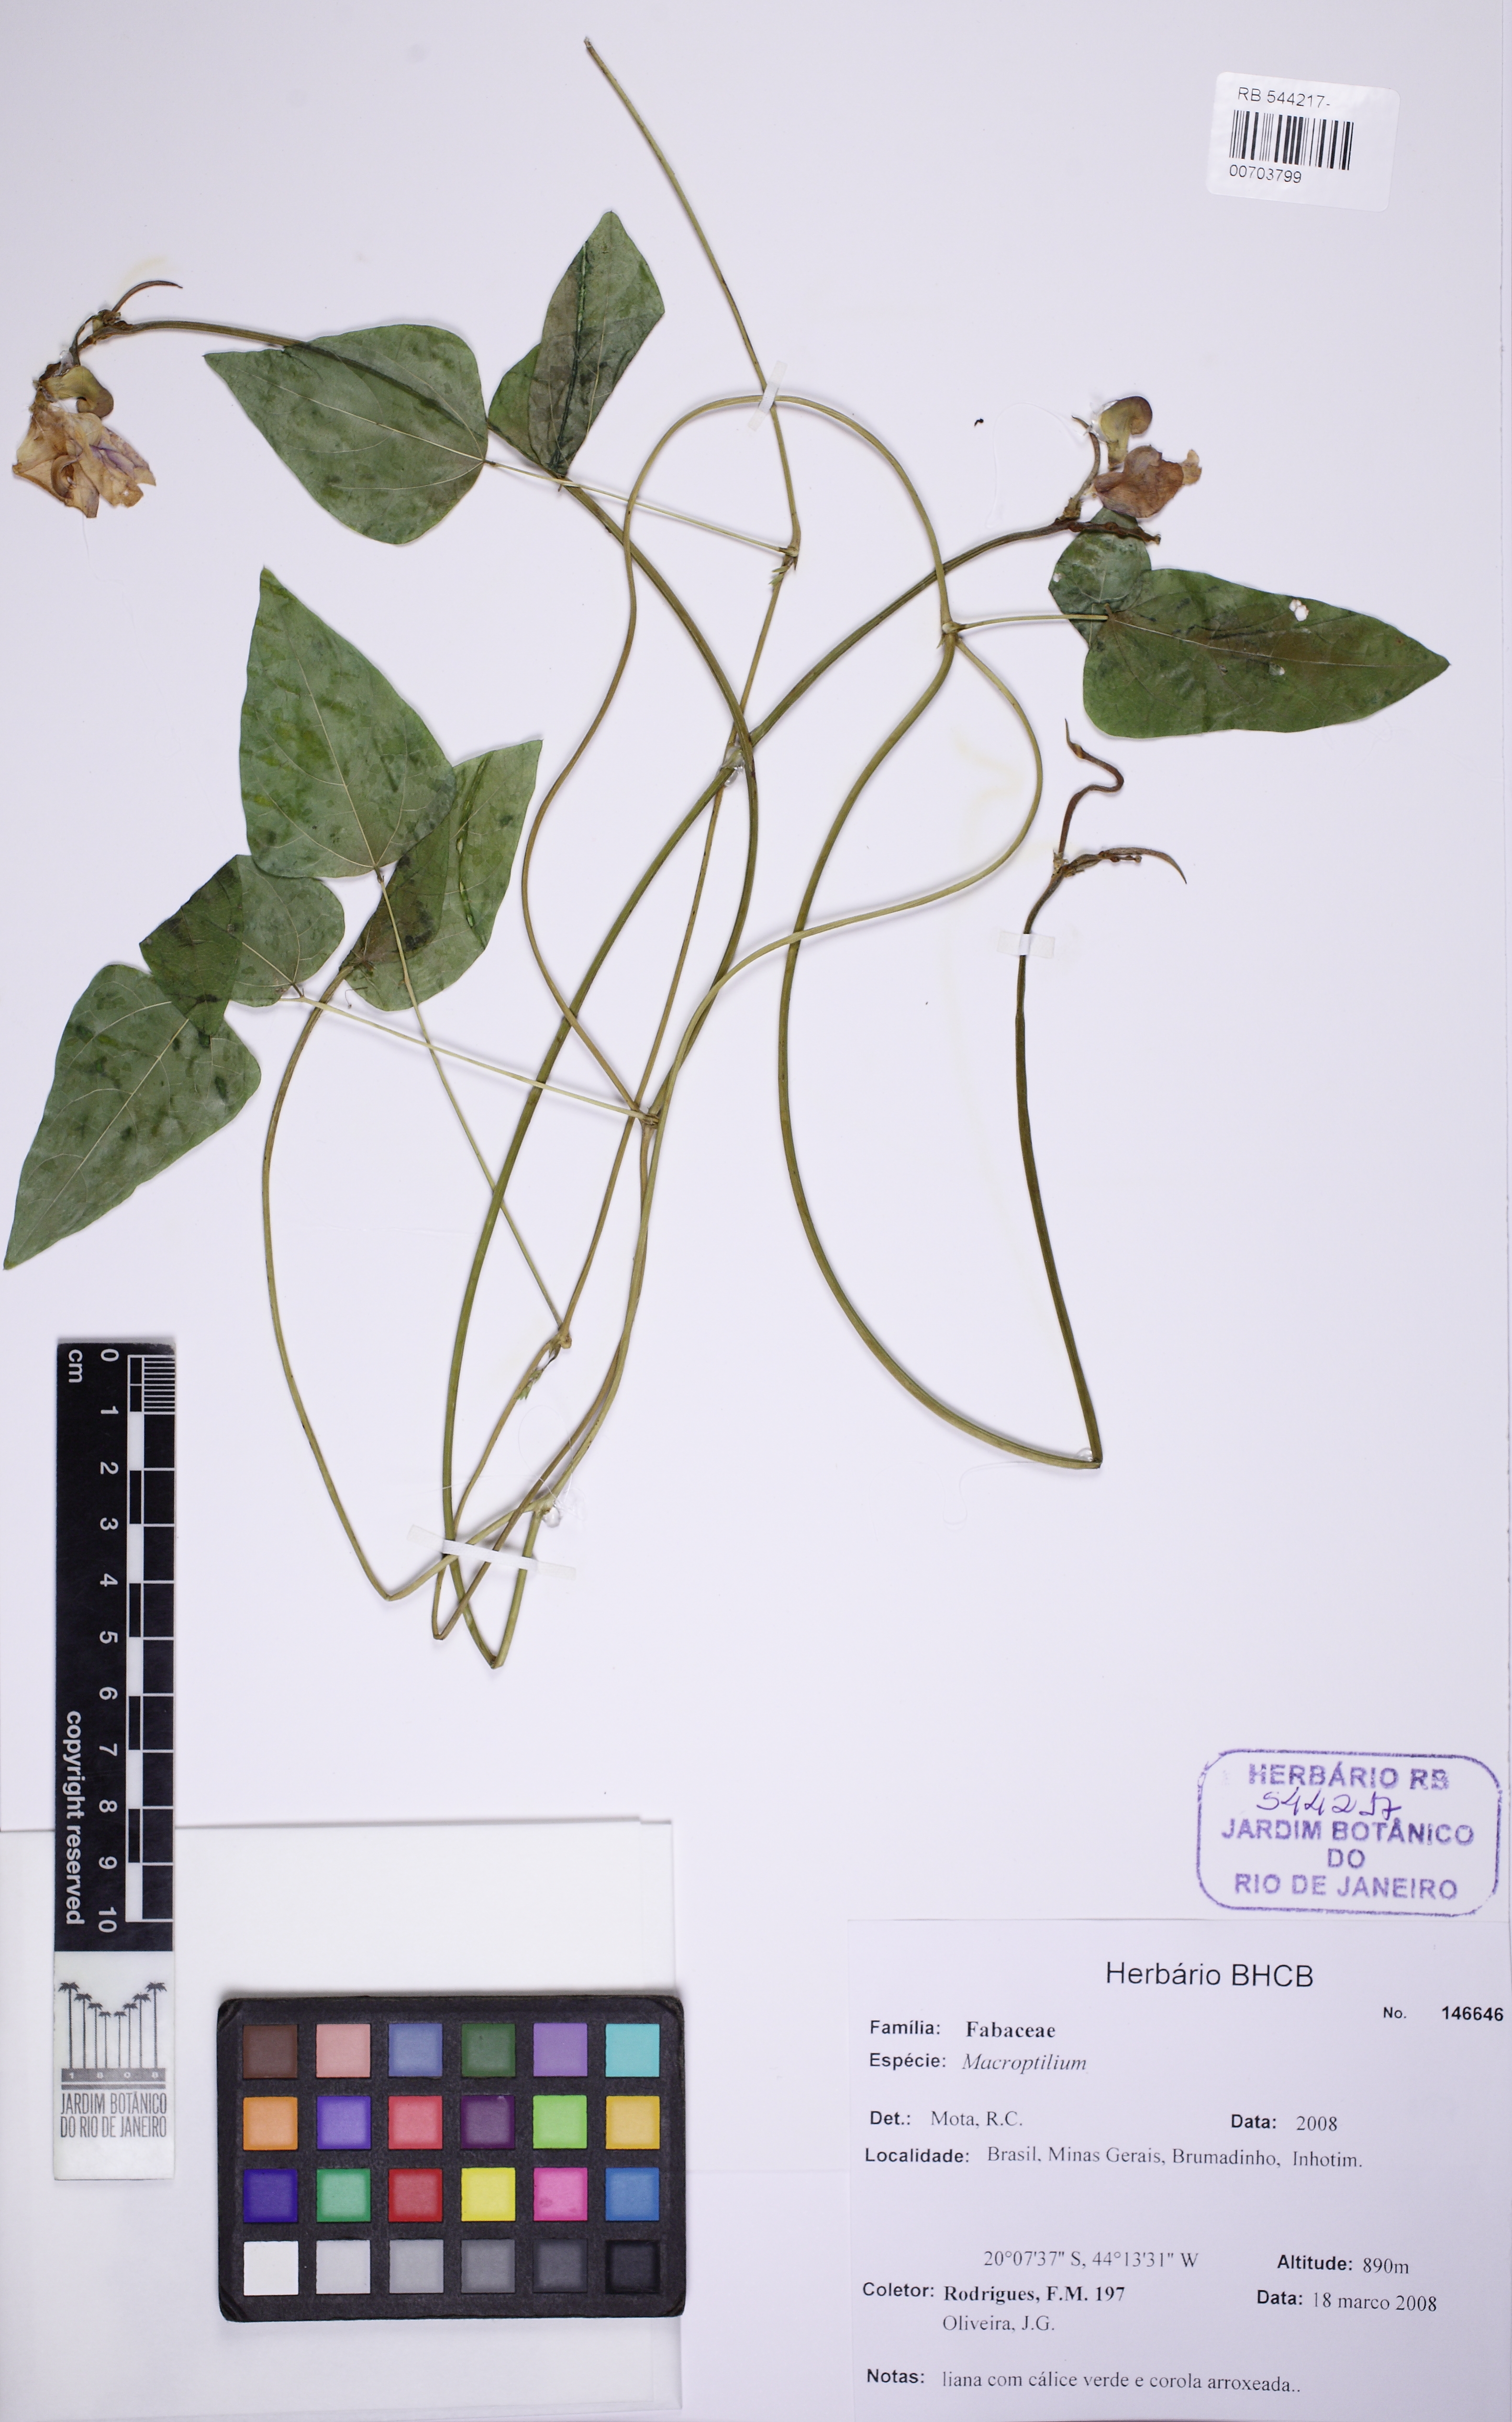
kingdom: Plantae
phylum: Tracheophyta
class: Magnoliopsida
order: Fabales
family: Fabaceae
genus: Ancistrotropis
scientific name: Ancistrotropis peduncularis
